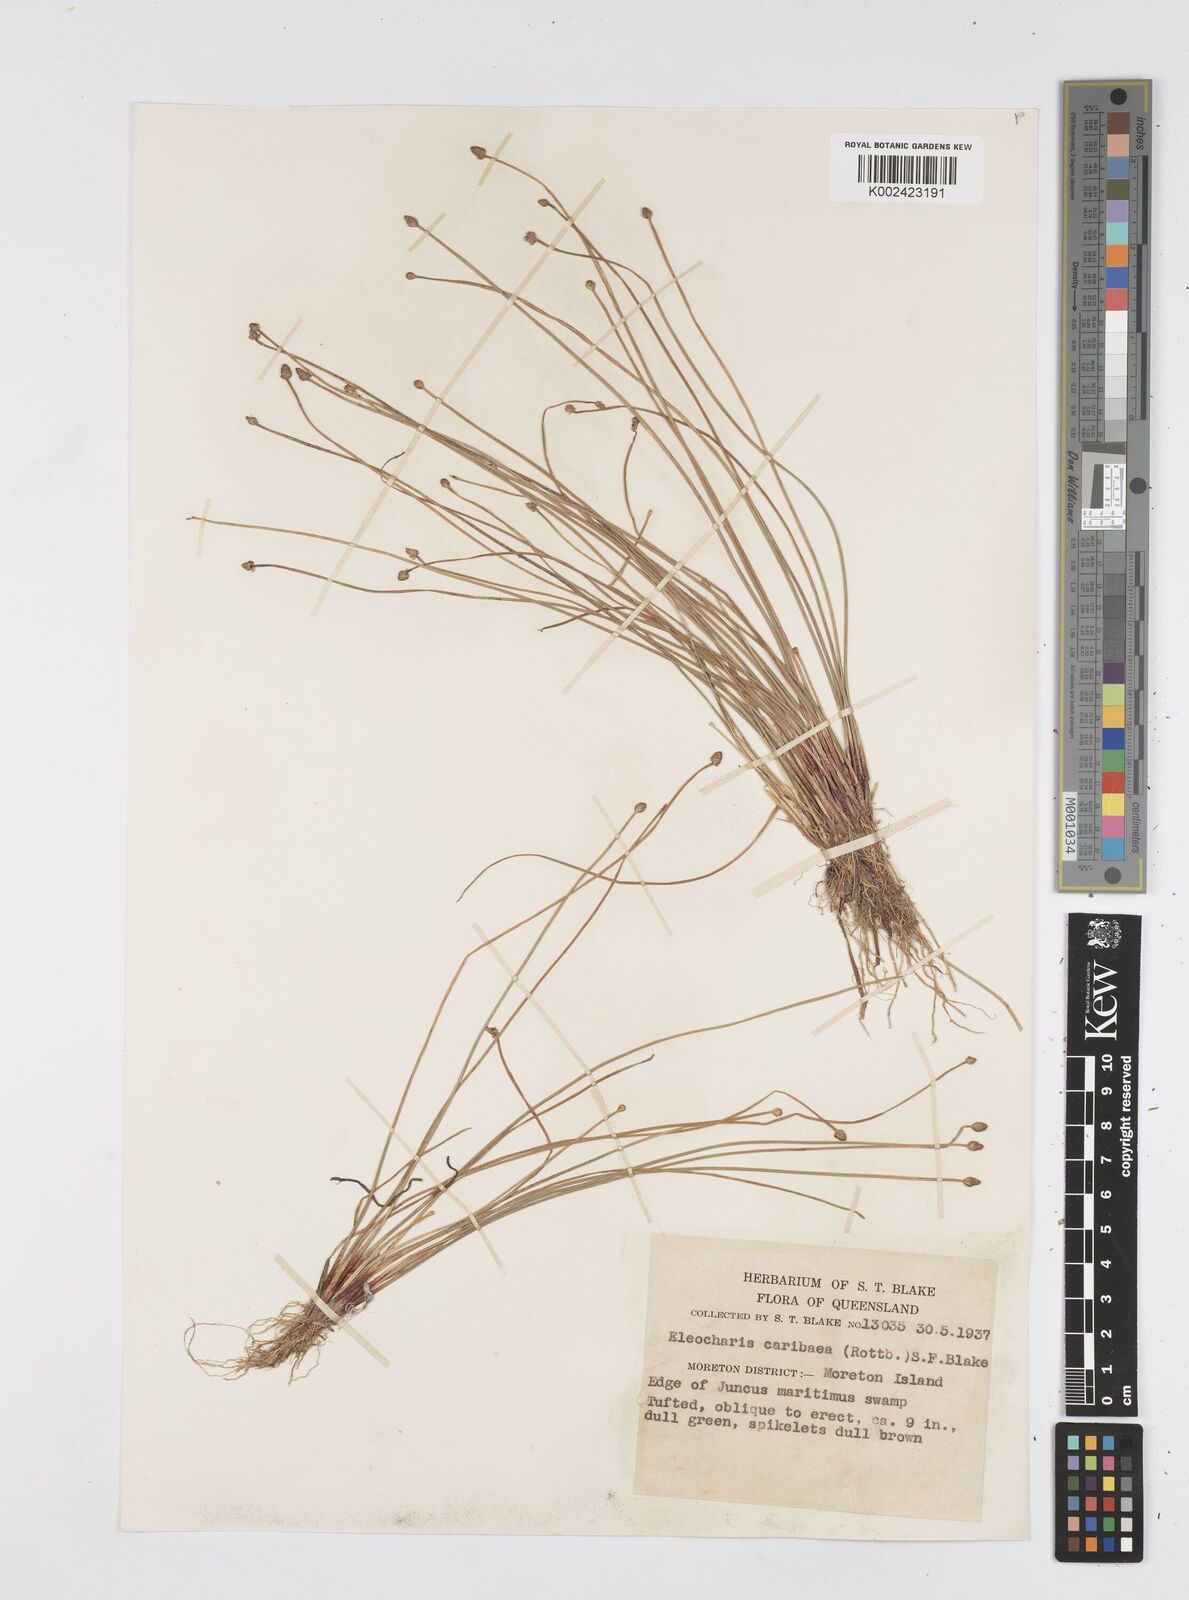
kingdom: Plantae
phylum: Tracheophyta
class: Liliopsida
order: Poales
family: Cyperaceae
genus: Eleocharis
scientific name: Eleocharis geniculata
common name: Canada spikesedge
